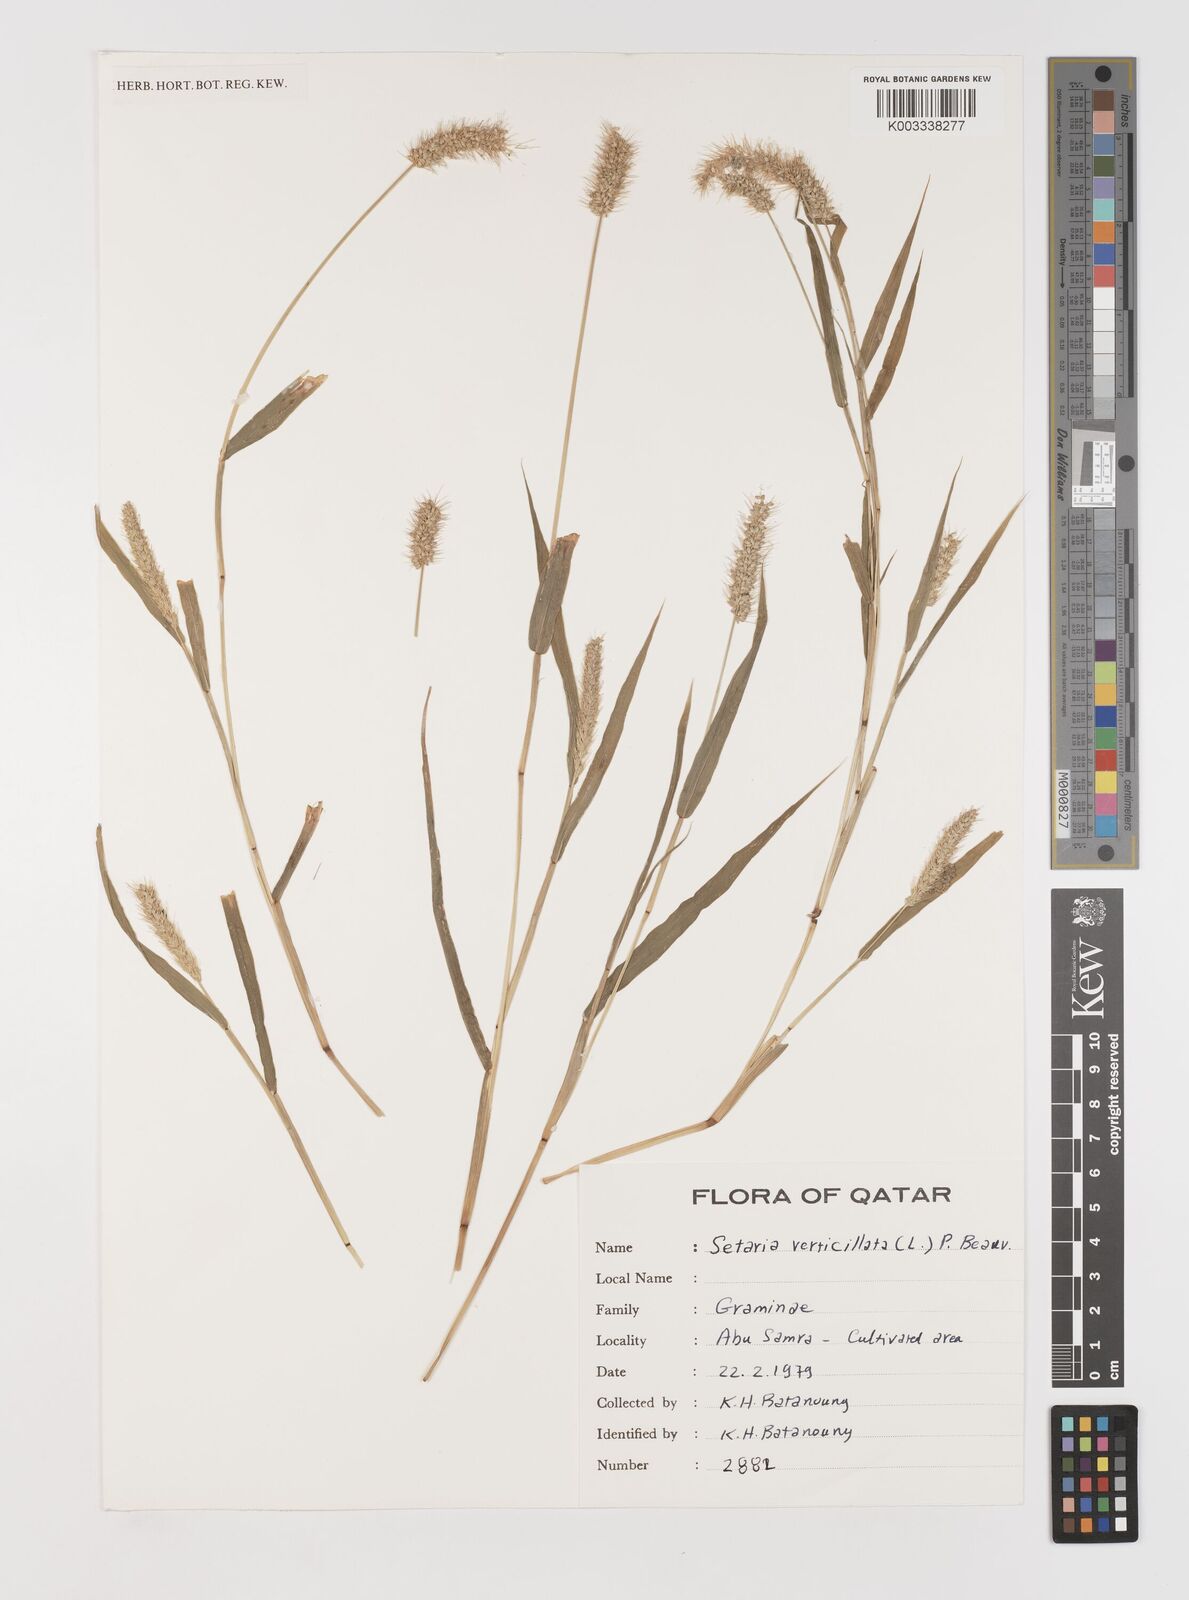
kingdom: Plantae
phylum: Tracheophyta
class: Liliopsida
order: Poales
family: Poaceae
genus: Setaria
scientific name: Setaria verticillata
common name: Hooked bristlegrass
